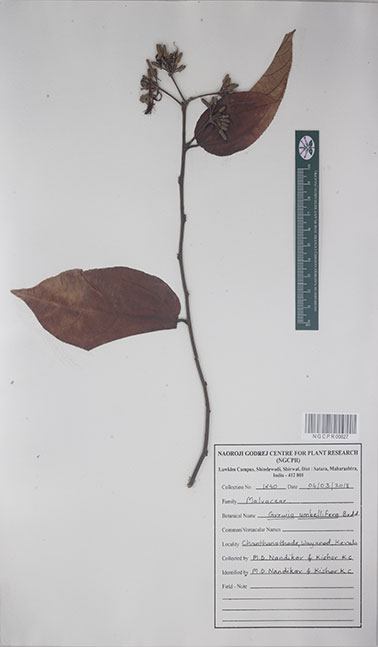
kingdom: Plantae
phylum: Tracheophyta
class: Magnoliopsida
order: Malvales
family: Malvaceae
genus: Grewia
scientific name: Grewia umbellifera
